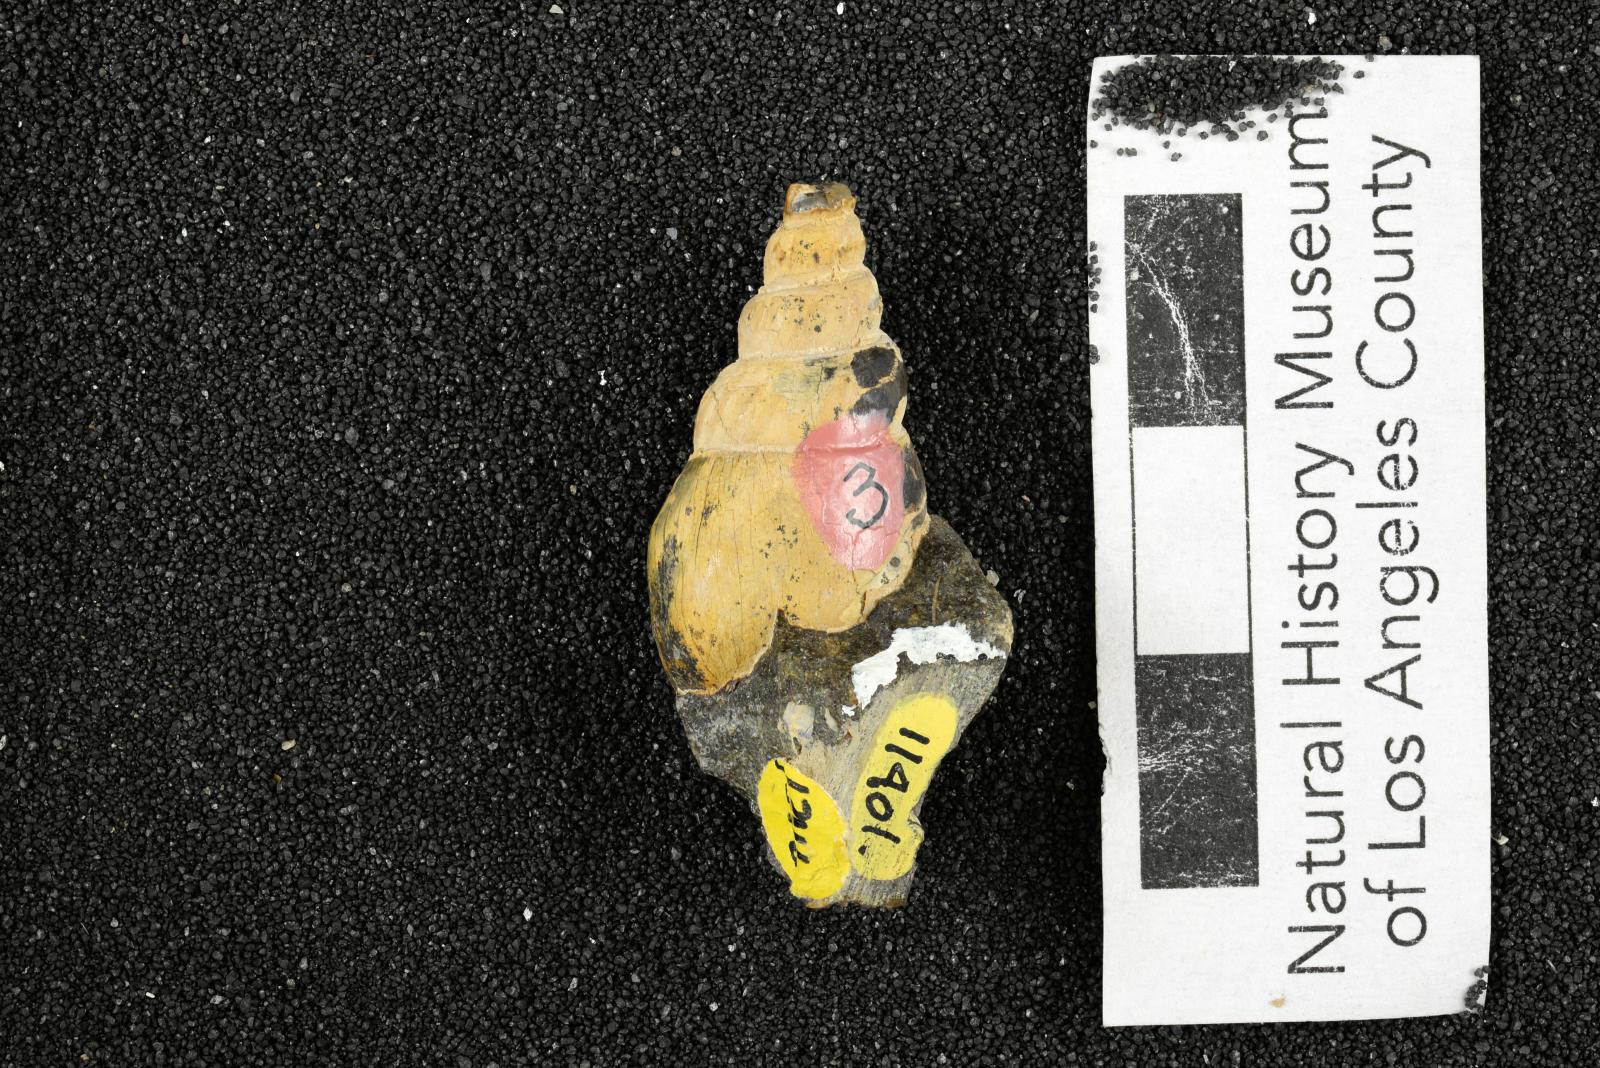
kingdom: Animalia
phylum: Mollusca
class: Gastropoda
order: Littorinimorpha
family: Aporrhaidae
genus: Latiala
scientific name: Latiala sigma
